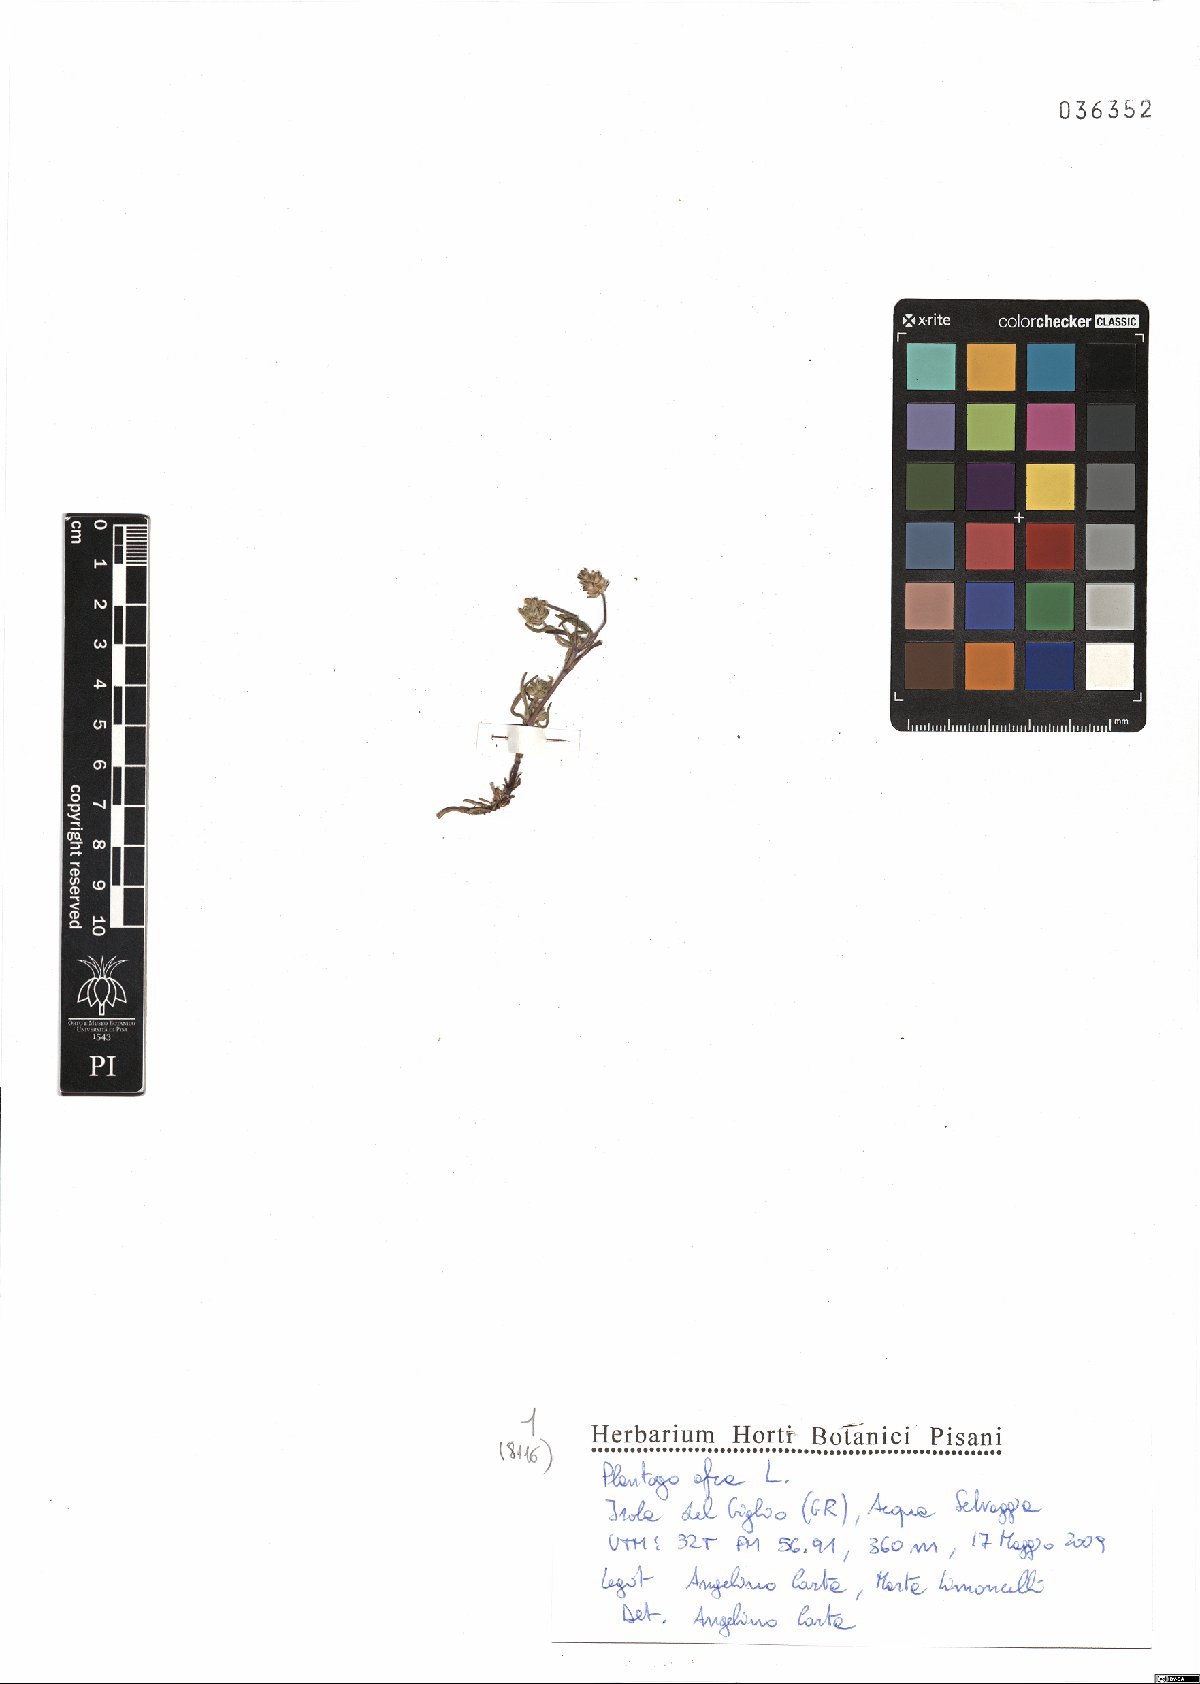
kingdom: Plantae
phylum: Tracheophyta
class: Magnoliopsida
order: Lamiales
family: Plantaginaceae
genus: Plantago
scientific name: Plantago afra
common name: Glandular plantain
